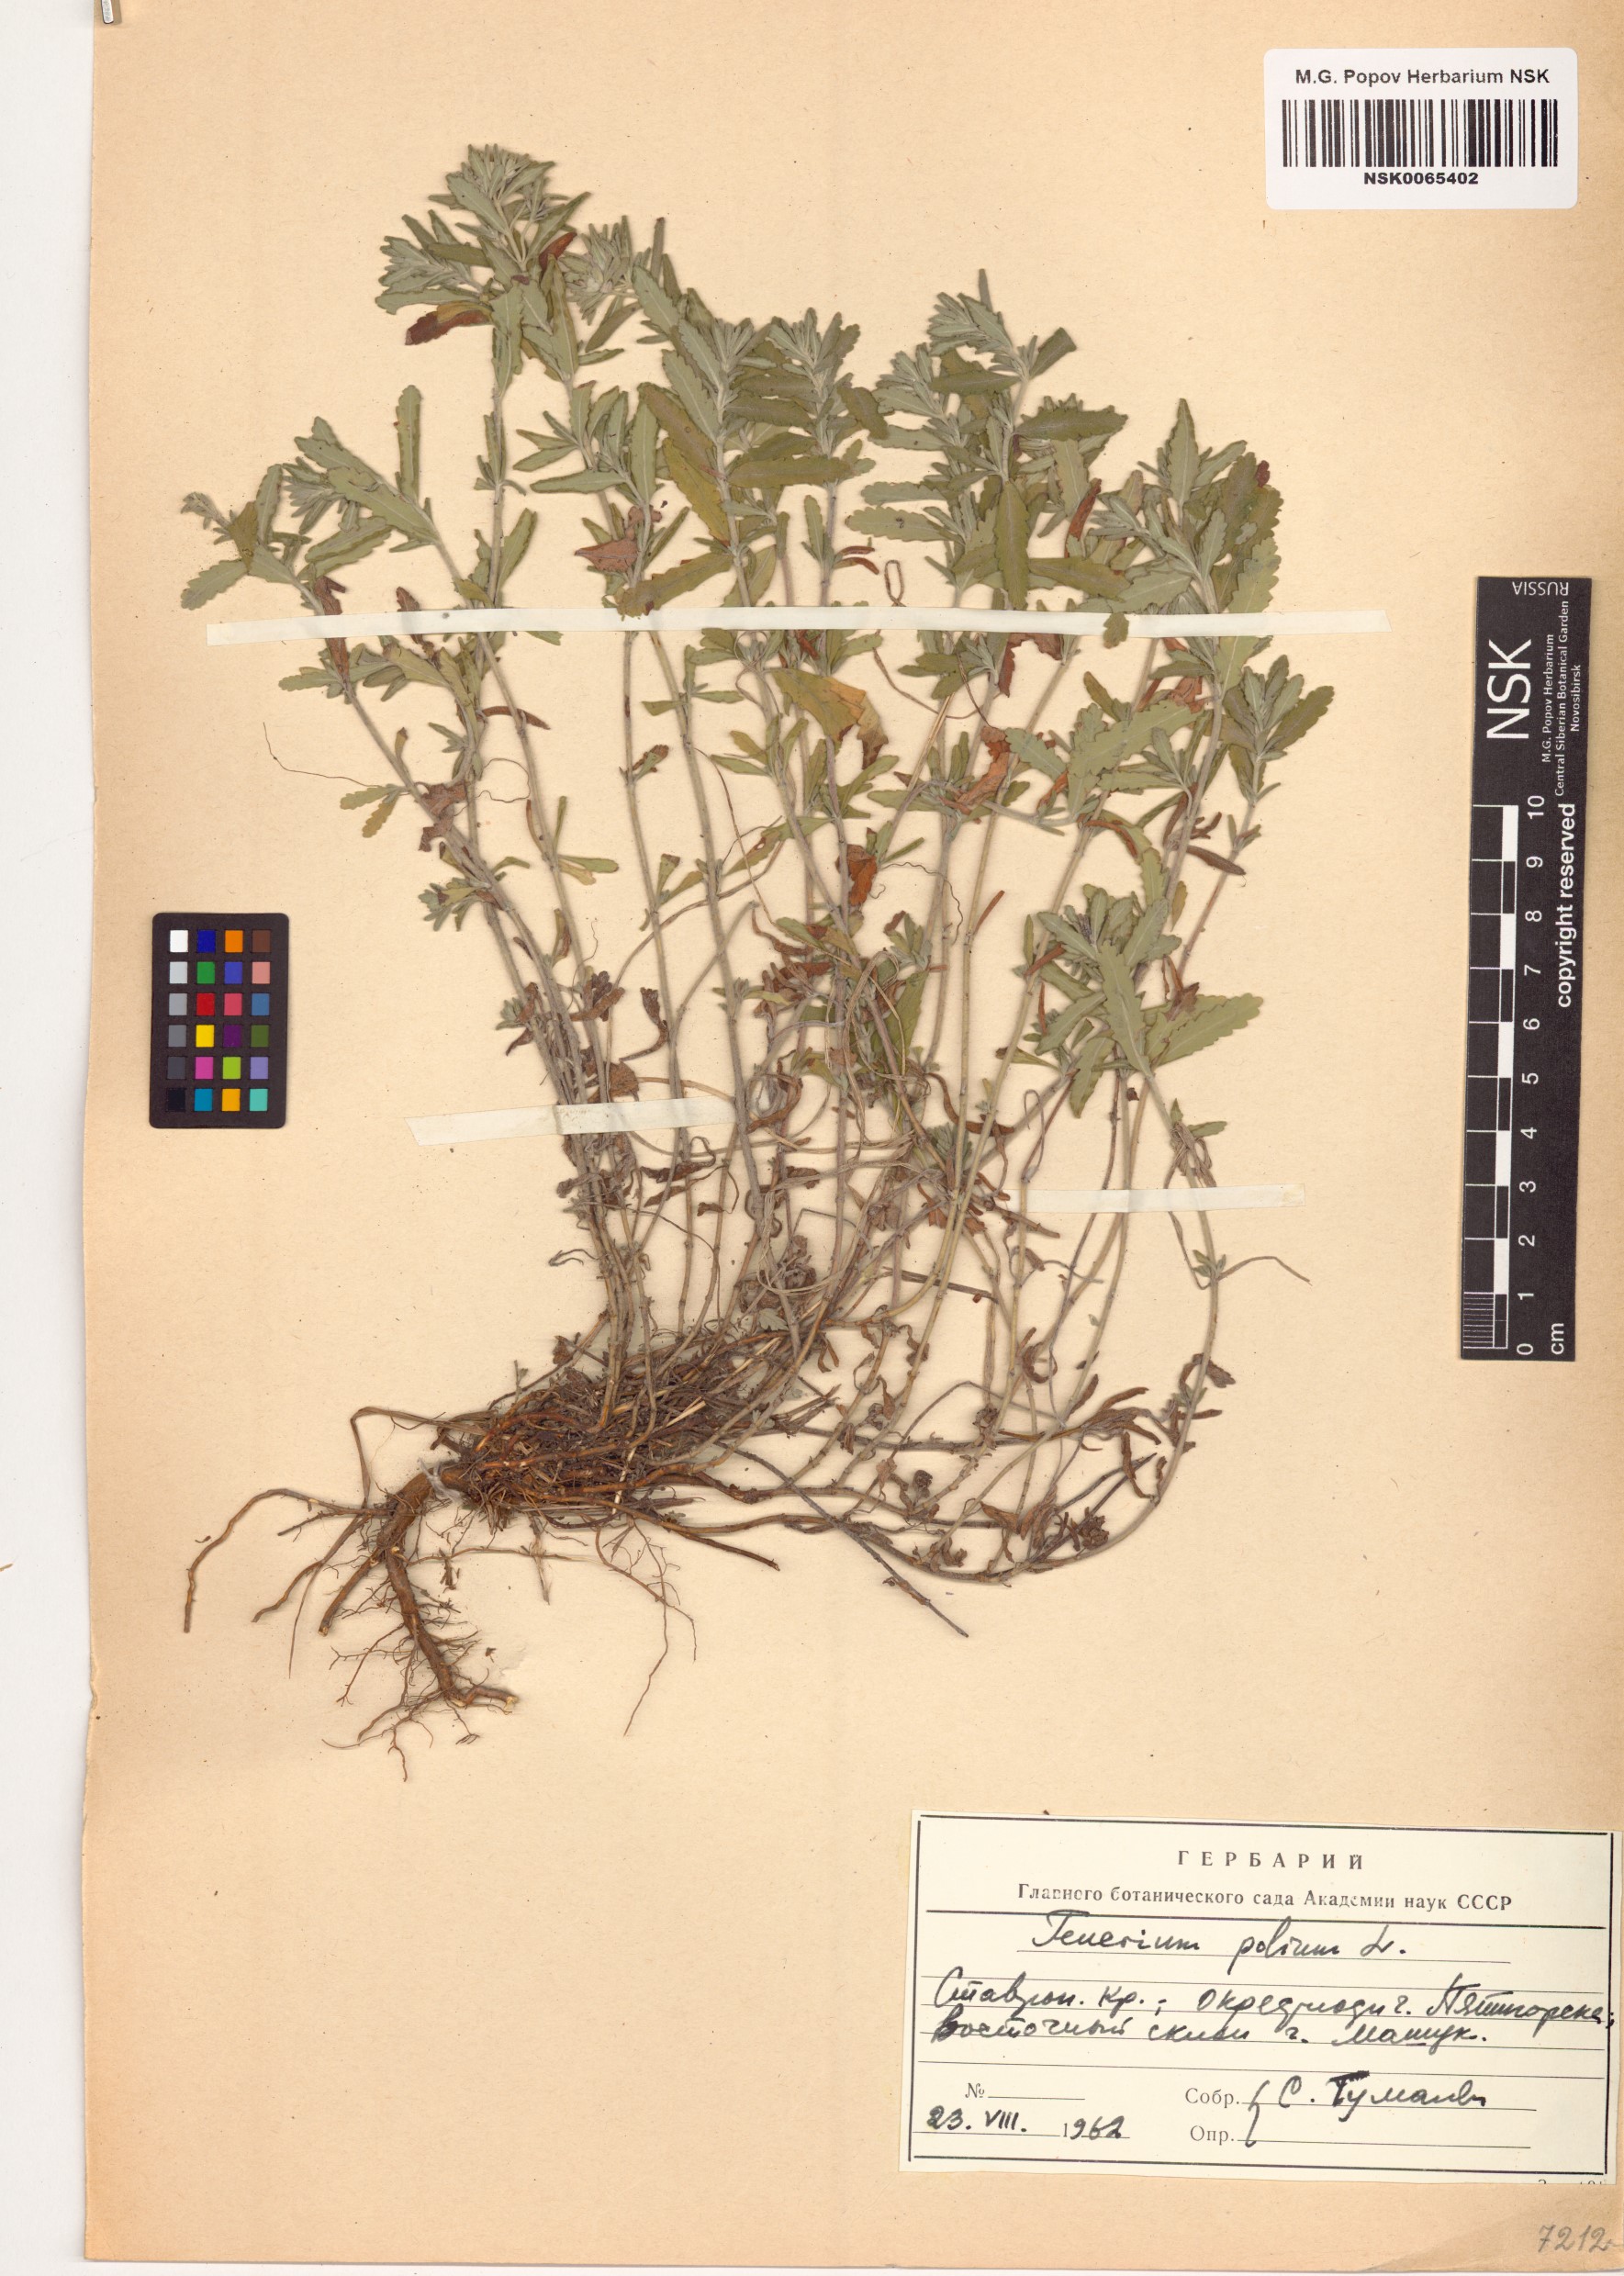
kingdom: Plantae
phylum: Tracheophyta
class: Magnoliopsida
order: Lamiales
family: Lamiaceae
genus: Teucrium
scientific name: Teucrium polium
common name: Poley
